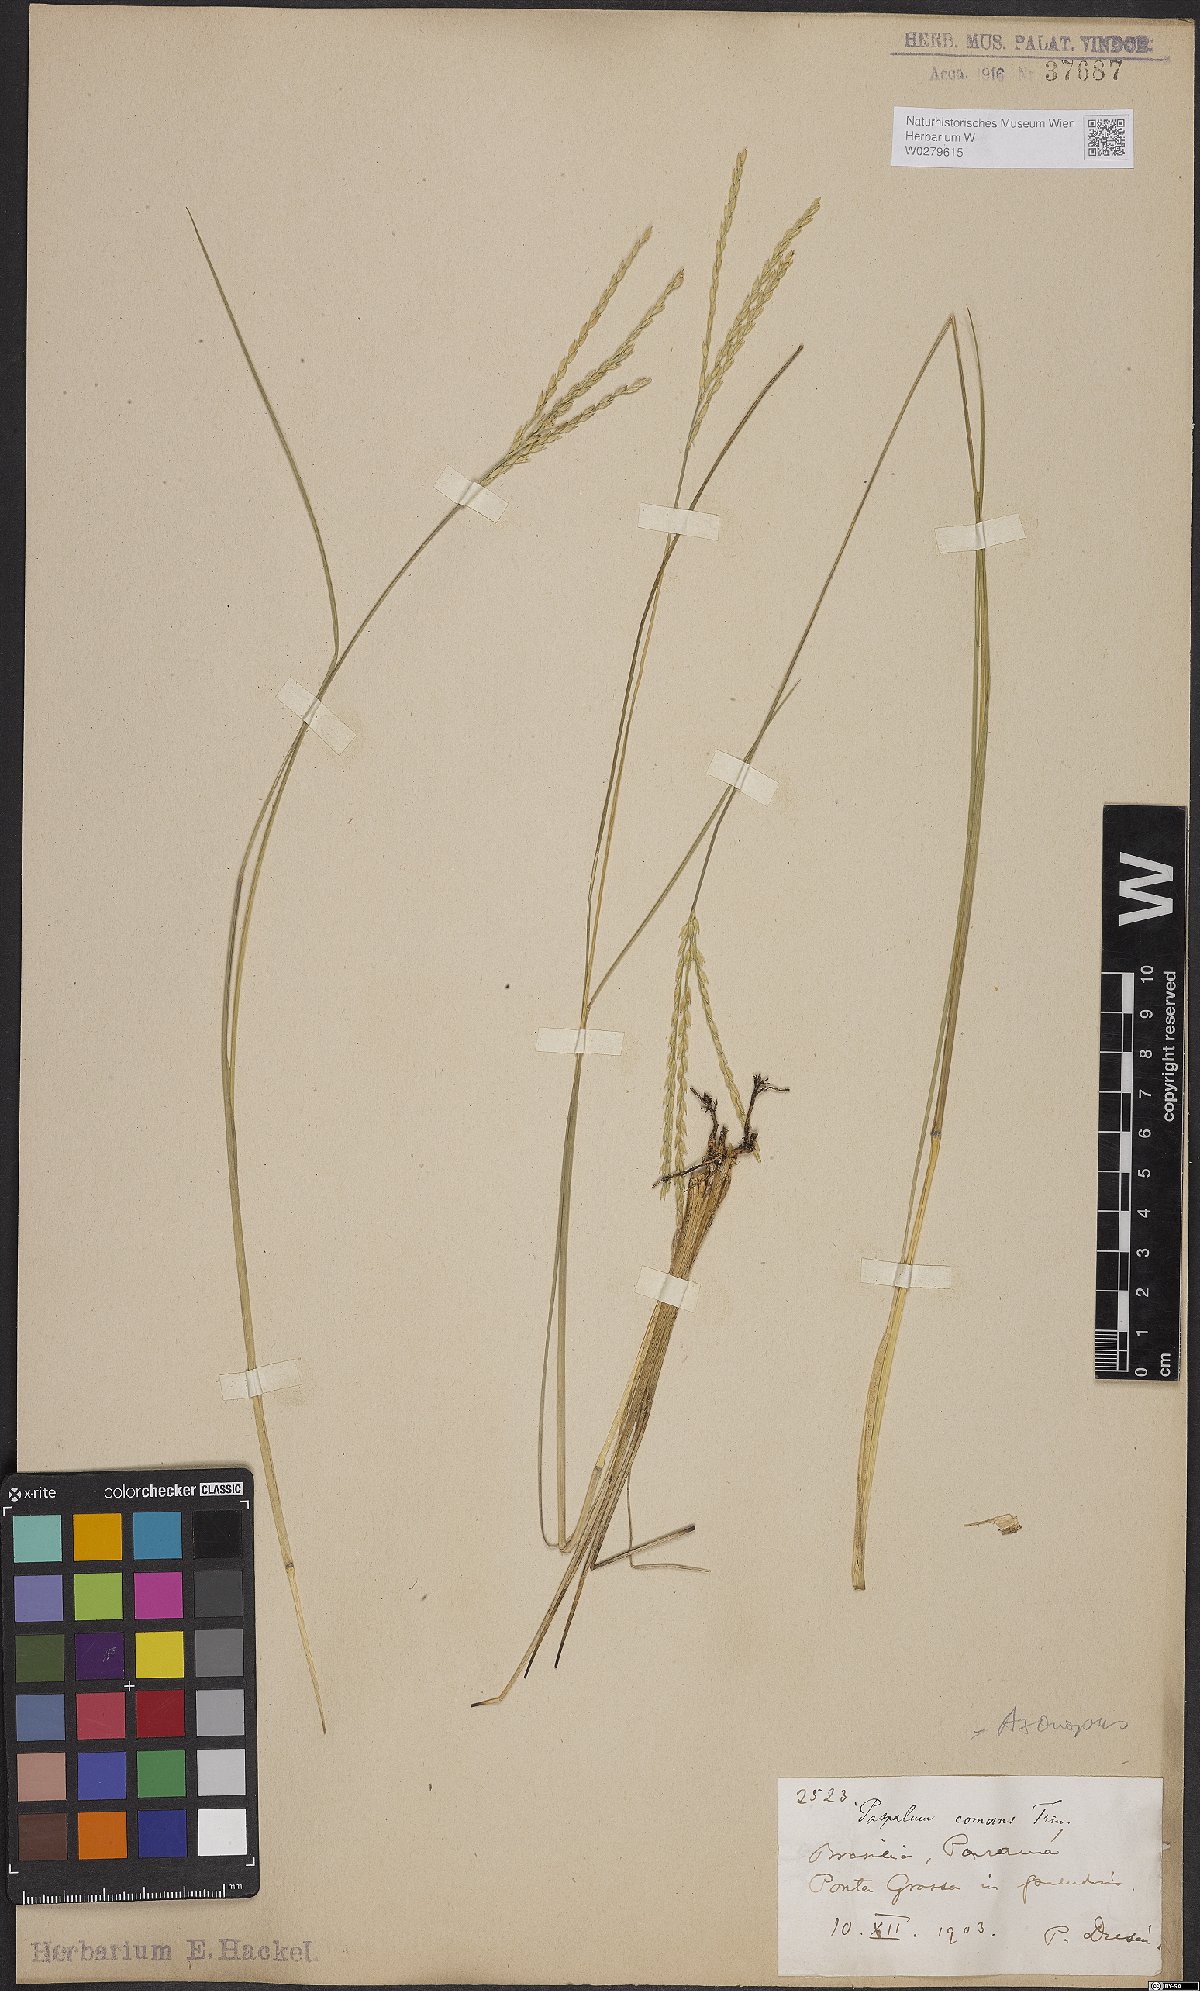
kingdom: Plantae
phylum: Tracheophyta
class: Liliopsida
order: Poales
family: Poaceae
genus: Axonopus
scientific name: Axonopus comans
